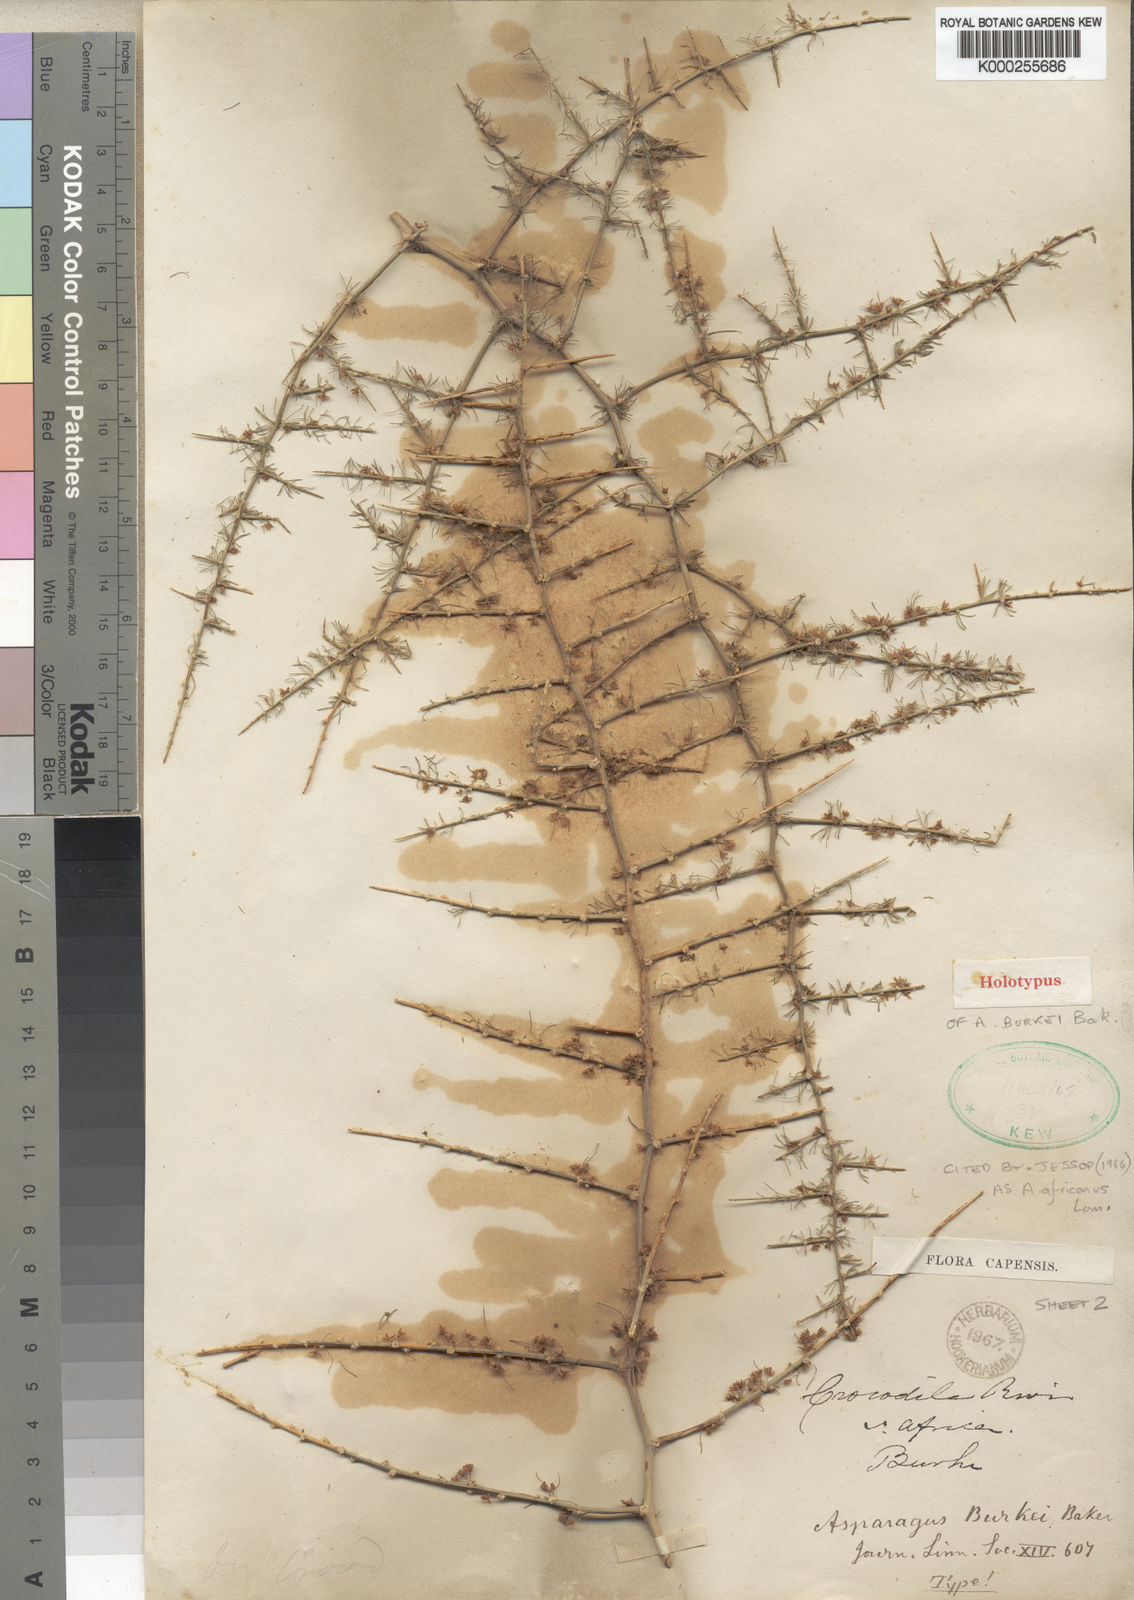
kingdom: Plantae
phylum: Tracheophyta
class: Liliopsida
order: Asparagales
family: Asparagaceae
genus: Asparagus
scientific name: Asparagus africanus
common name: Asparagus-fern
